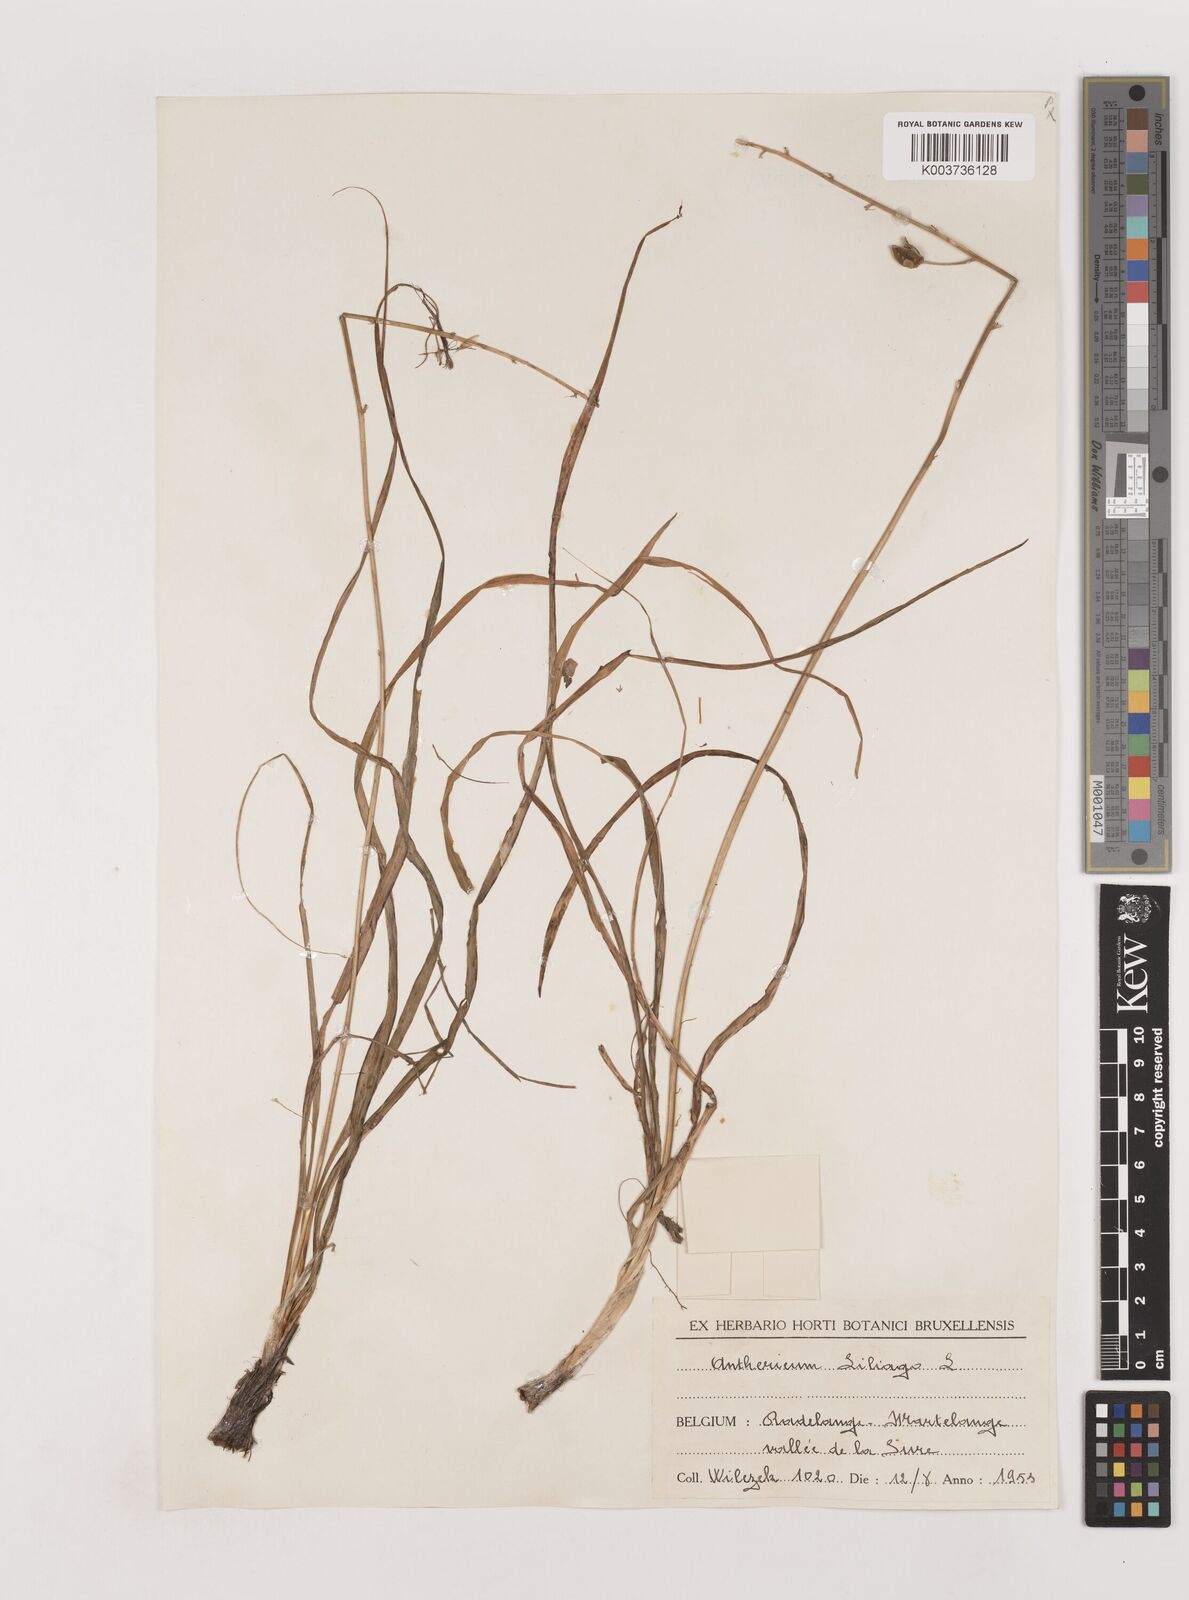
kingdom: Plantae
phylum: Tracheophyta
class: Liliopsida
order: Asparagales
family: Asparagaceae
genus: Anthericum
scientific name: Anthericum liliago
